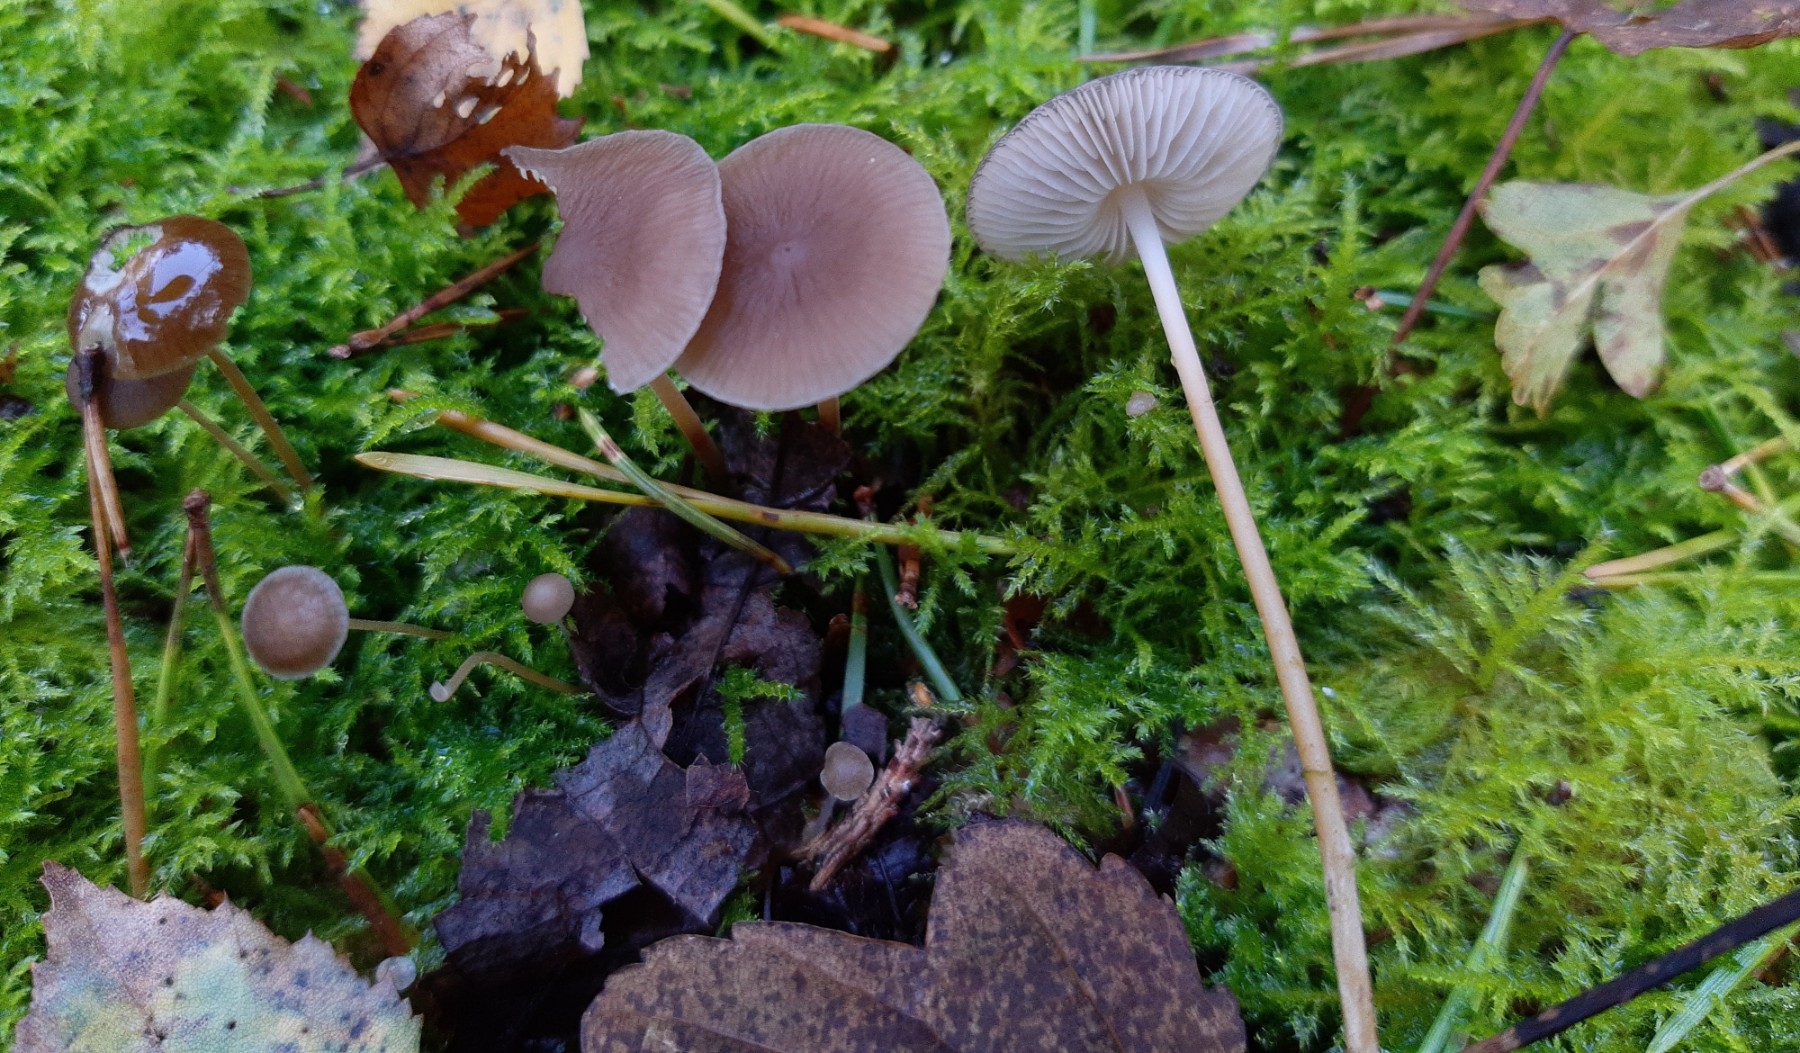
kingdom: Fungi
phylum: Basidiomycota
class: Agaricomycetes
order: Agaricales
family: Physalacriaceae
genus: Strobilurus
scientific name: Strobilurus stephanocystis
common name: fyrre-koglehat
